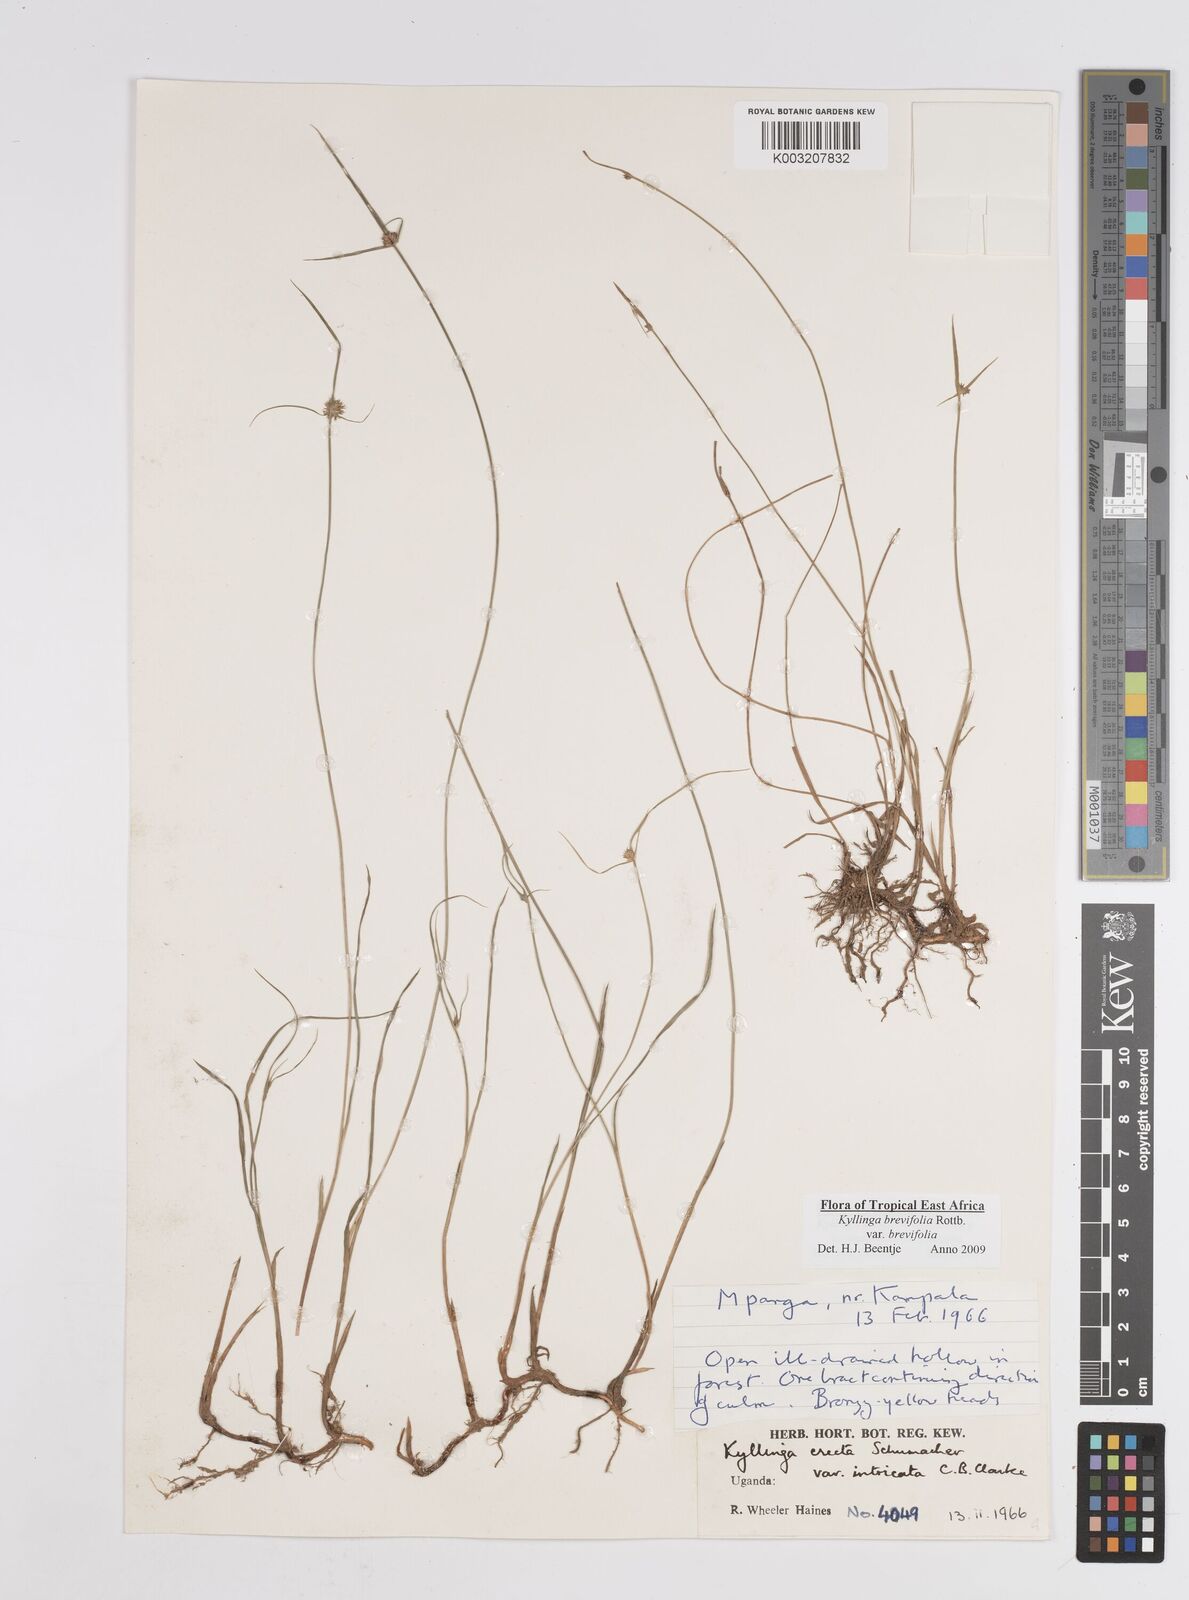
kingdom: Plantae
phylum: Tracheophyta
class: Liliopsida
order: Poales
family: Cyperaceae
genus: Cyperus
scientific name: Cyperus erectus
